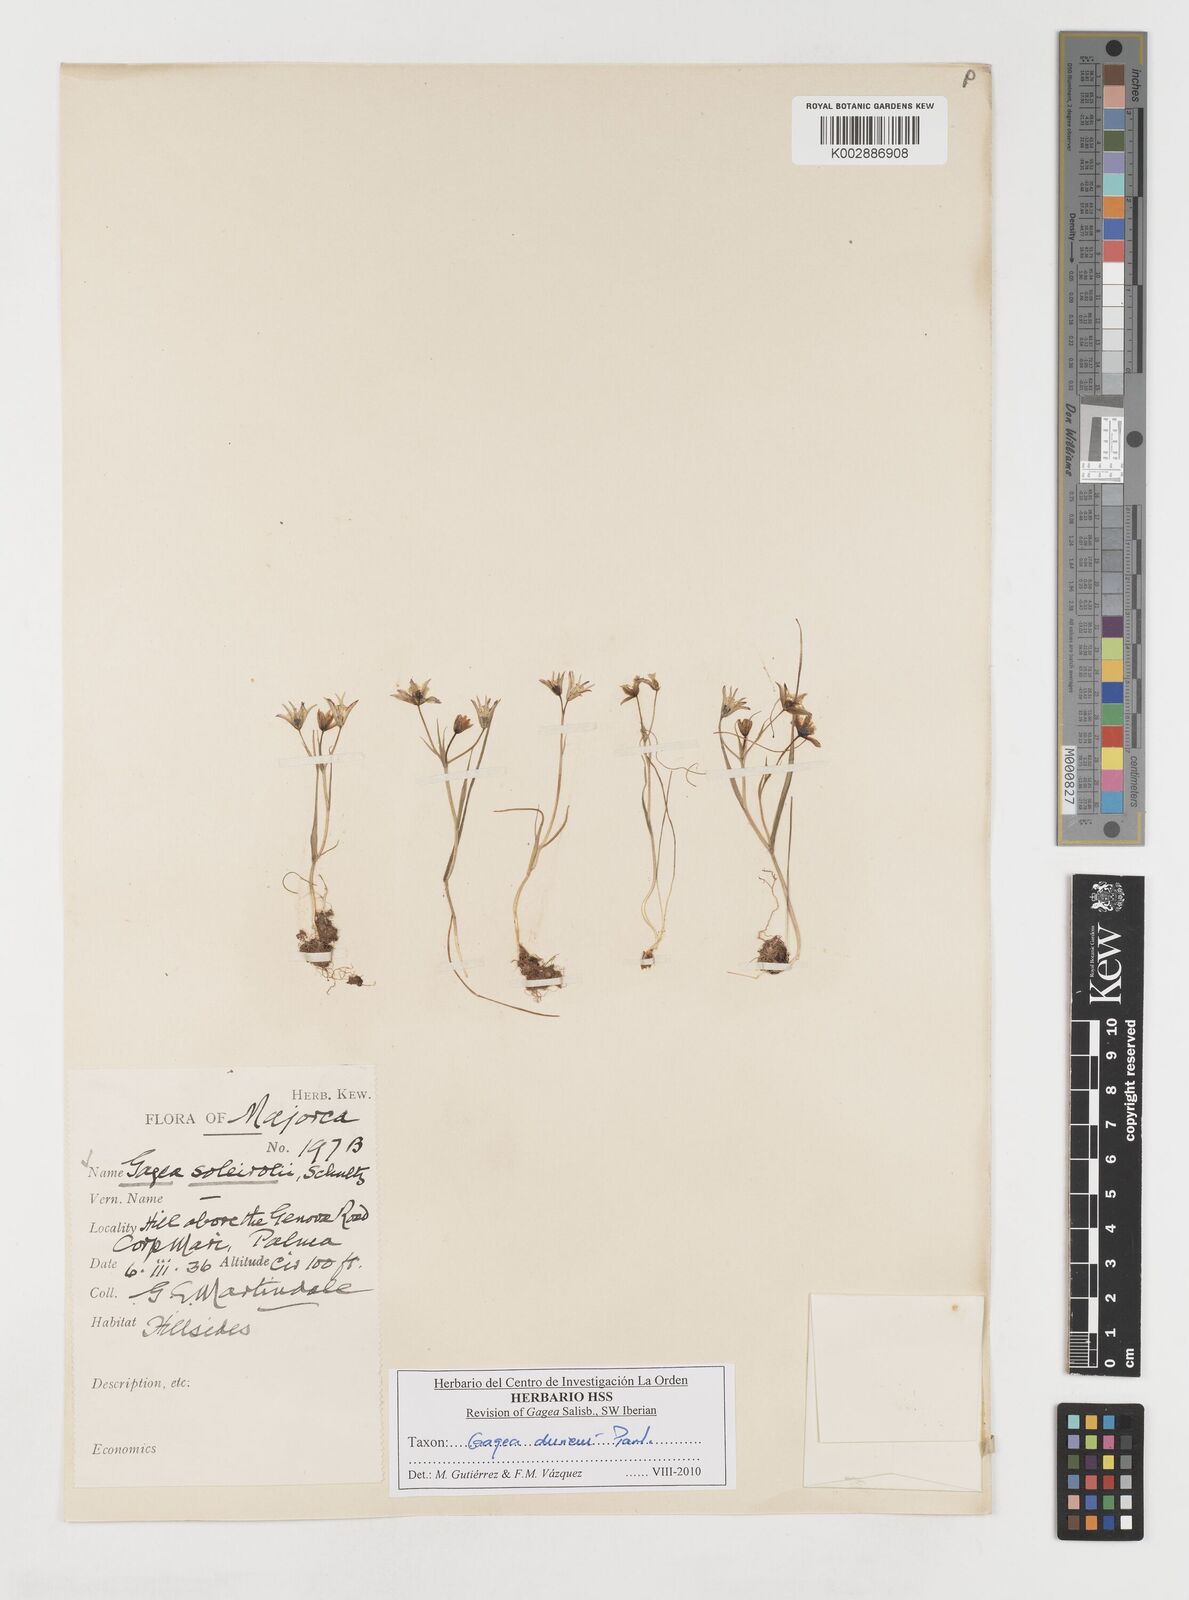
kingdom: Plantae
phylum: Tracheophyta
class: Liliopsida
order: Liliales
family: Liliaceae
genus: Gagea
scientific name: Gagea durieui
